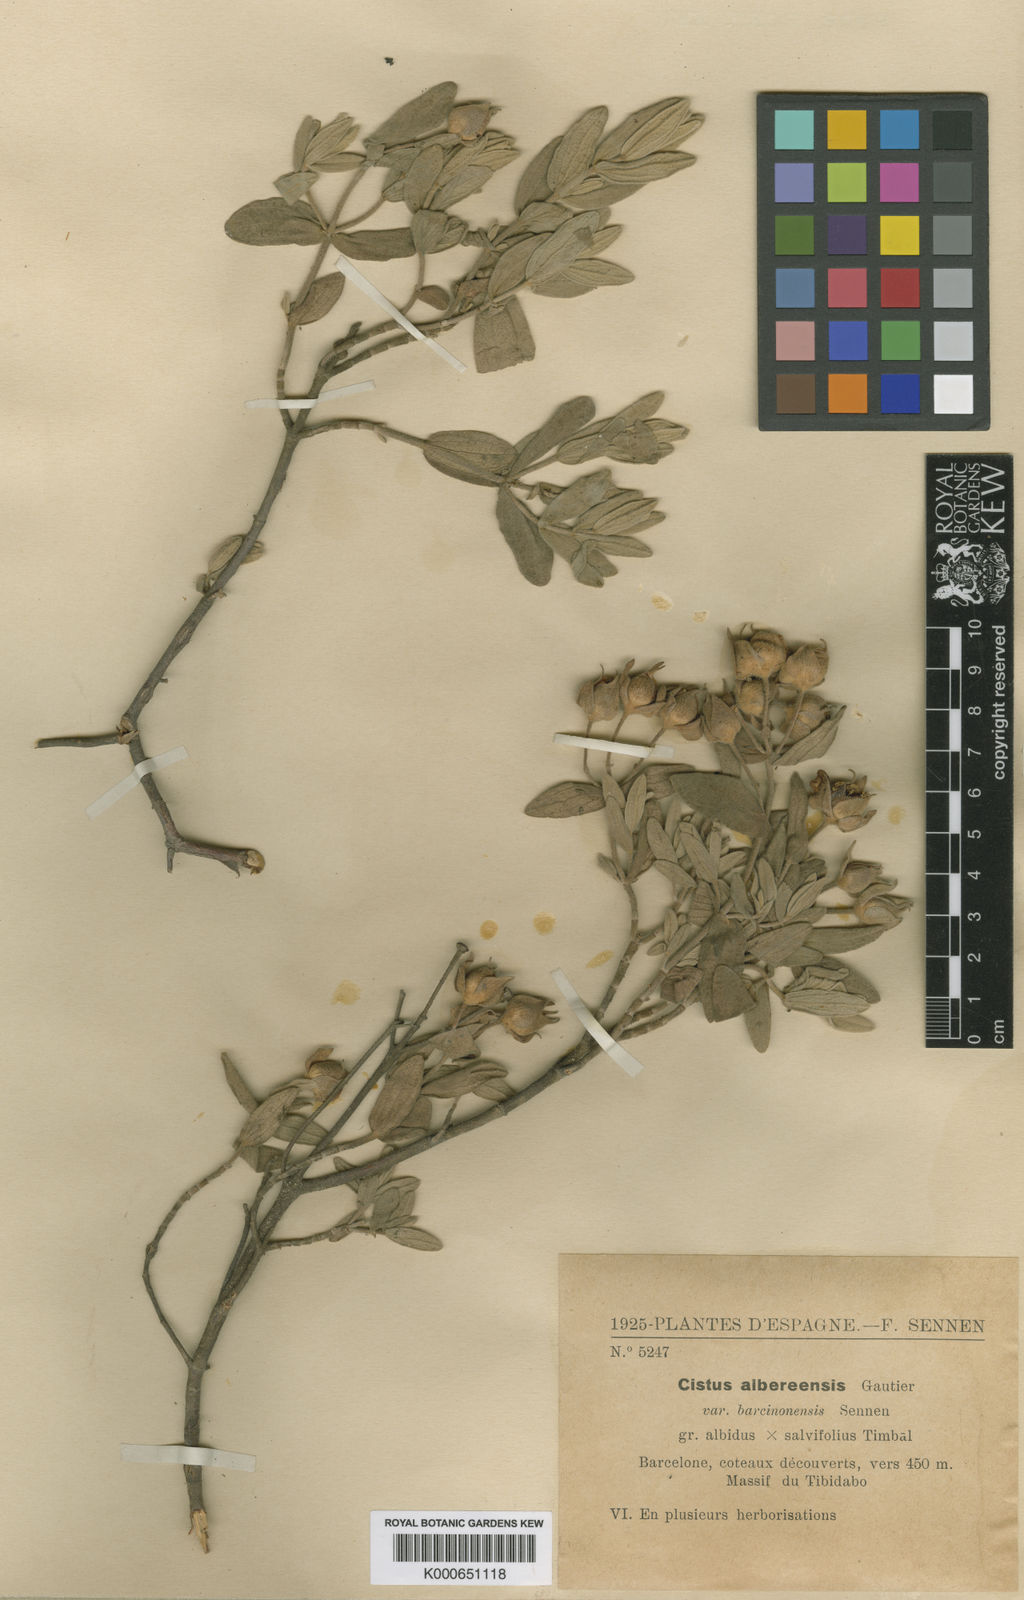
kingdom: Plantae
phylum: Tracheophyta
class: Magnoliopsida
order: Malvales
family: Cistaceae
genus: Cistus
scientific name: Cistus albidus
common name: White-leaf rock-rose
